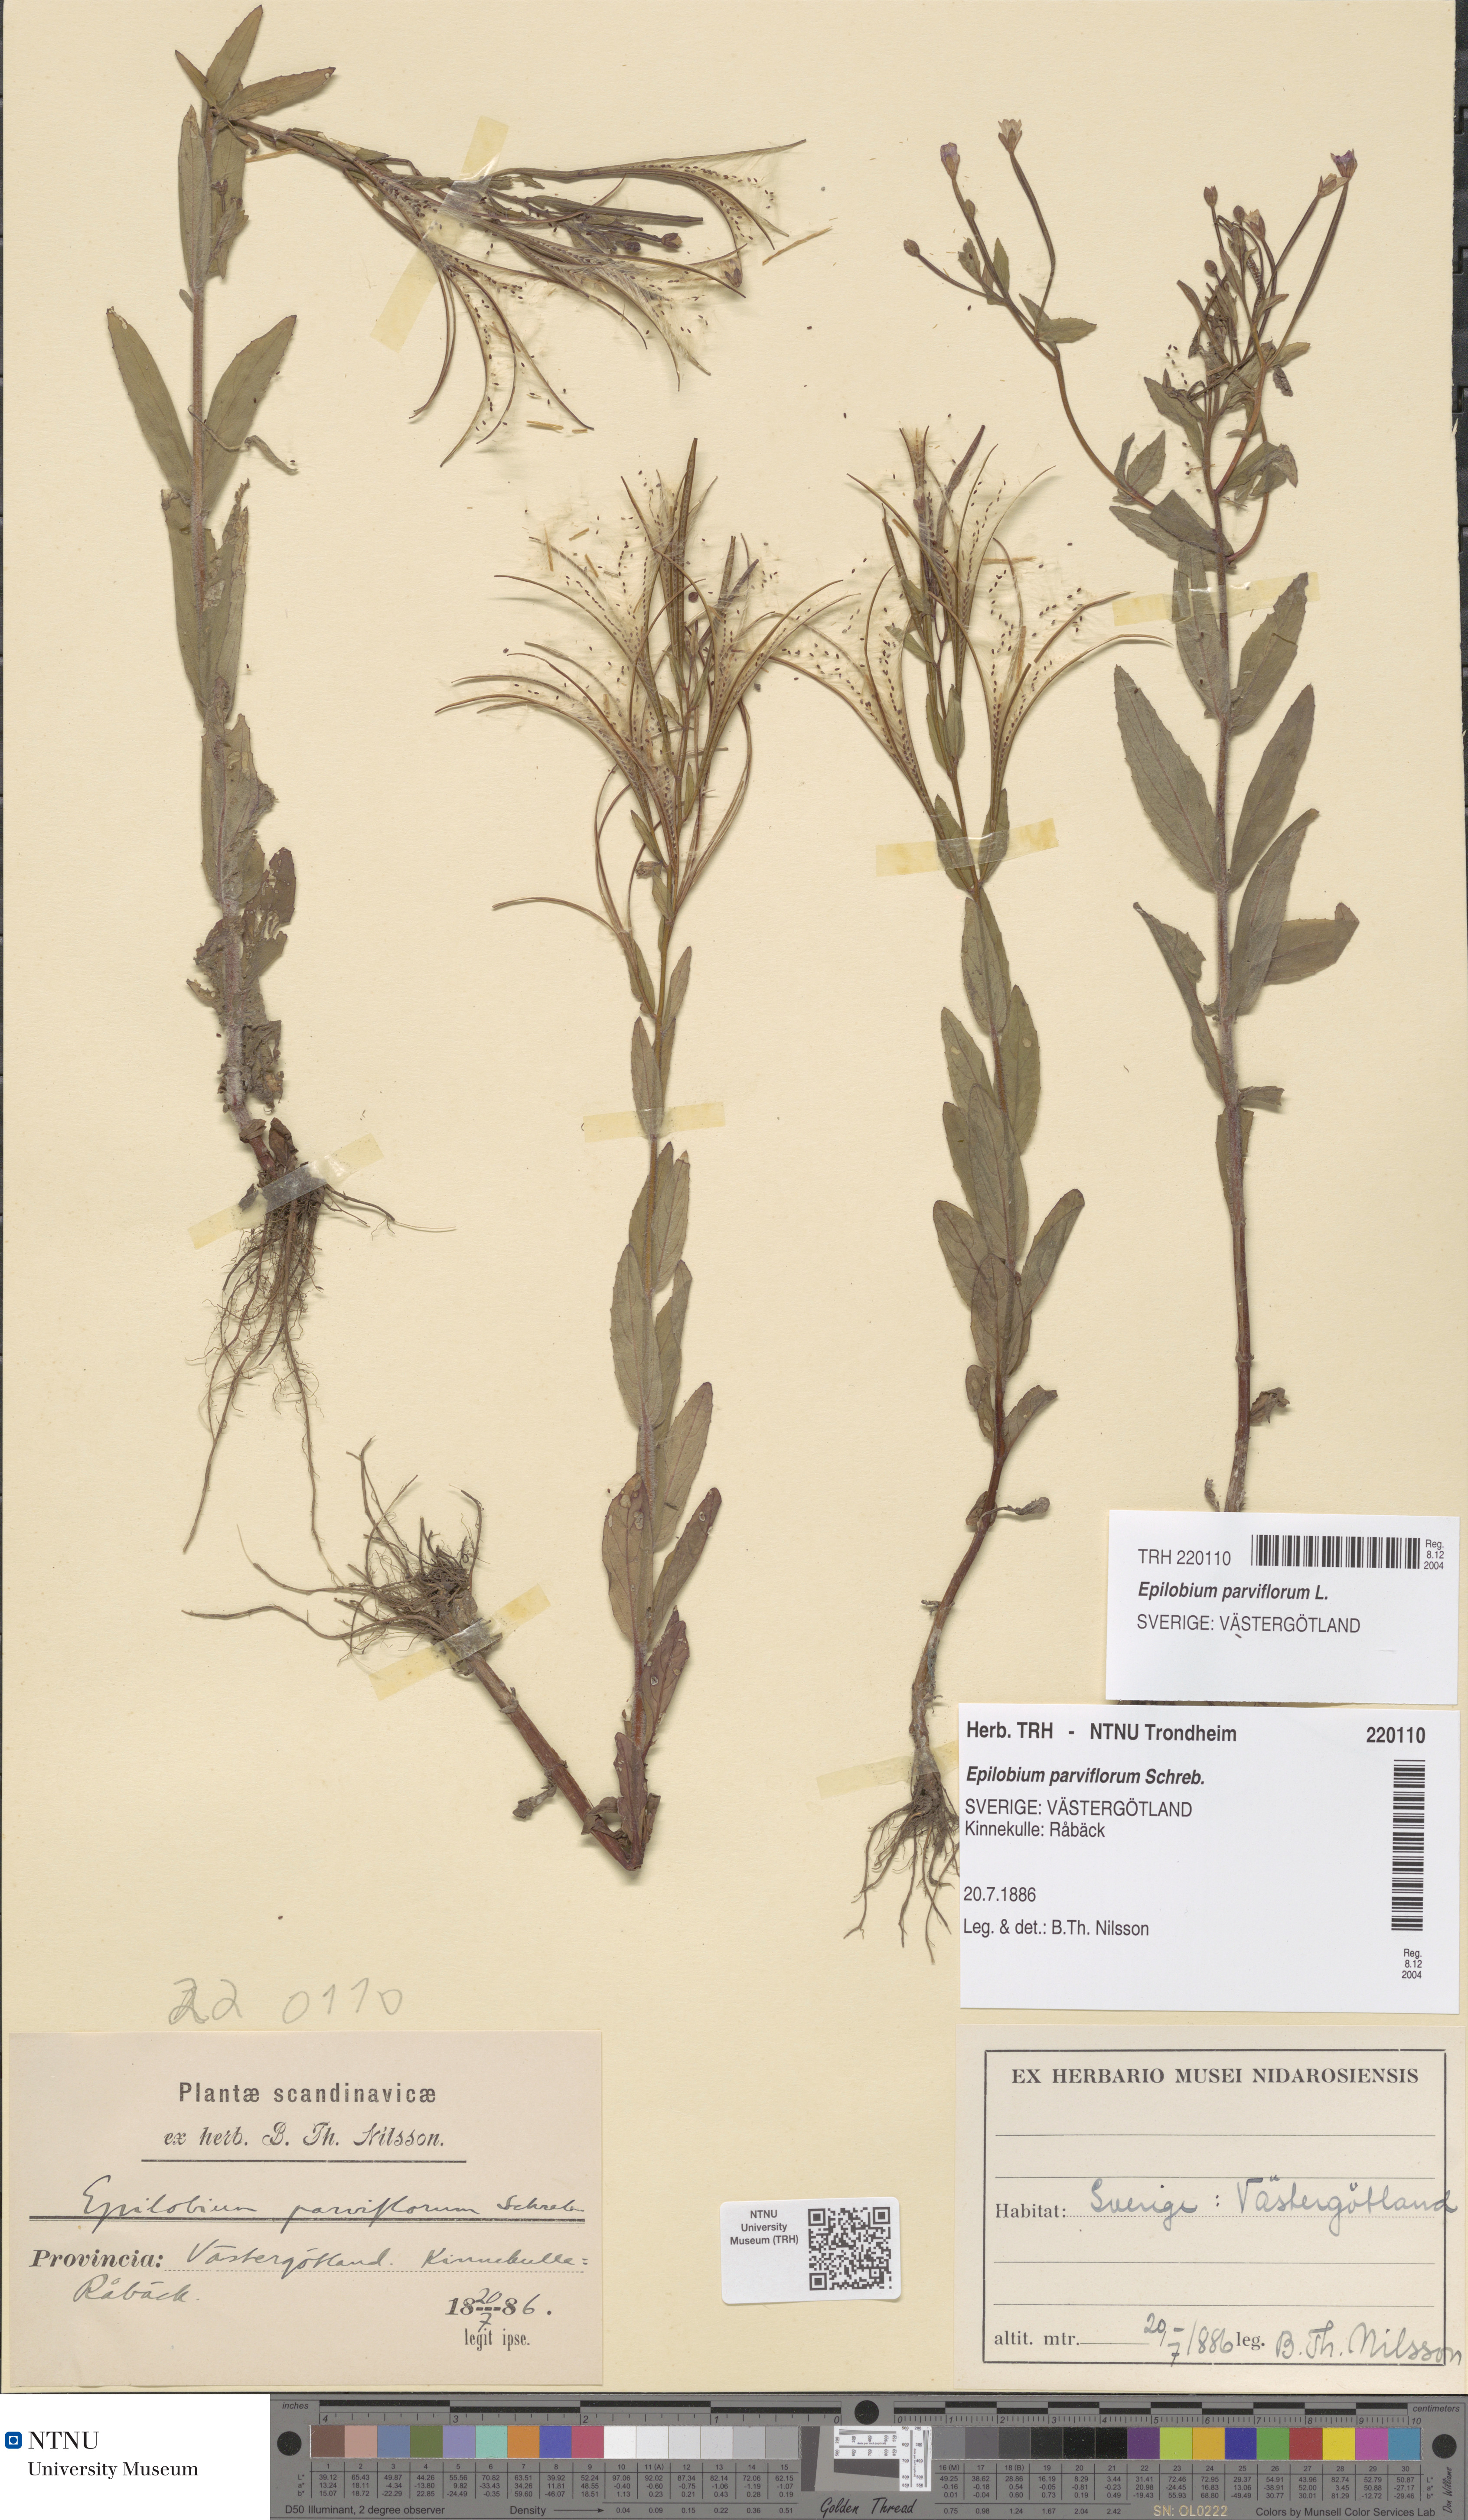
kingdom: Plantae
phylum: Tracheophyta
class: Magnoliopsida
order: Myrtales
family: Onagraceae
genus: Epilobium
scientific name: Epilobium parviflorum
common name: Hoary willowherb
